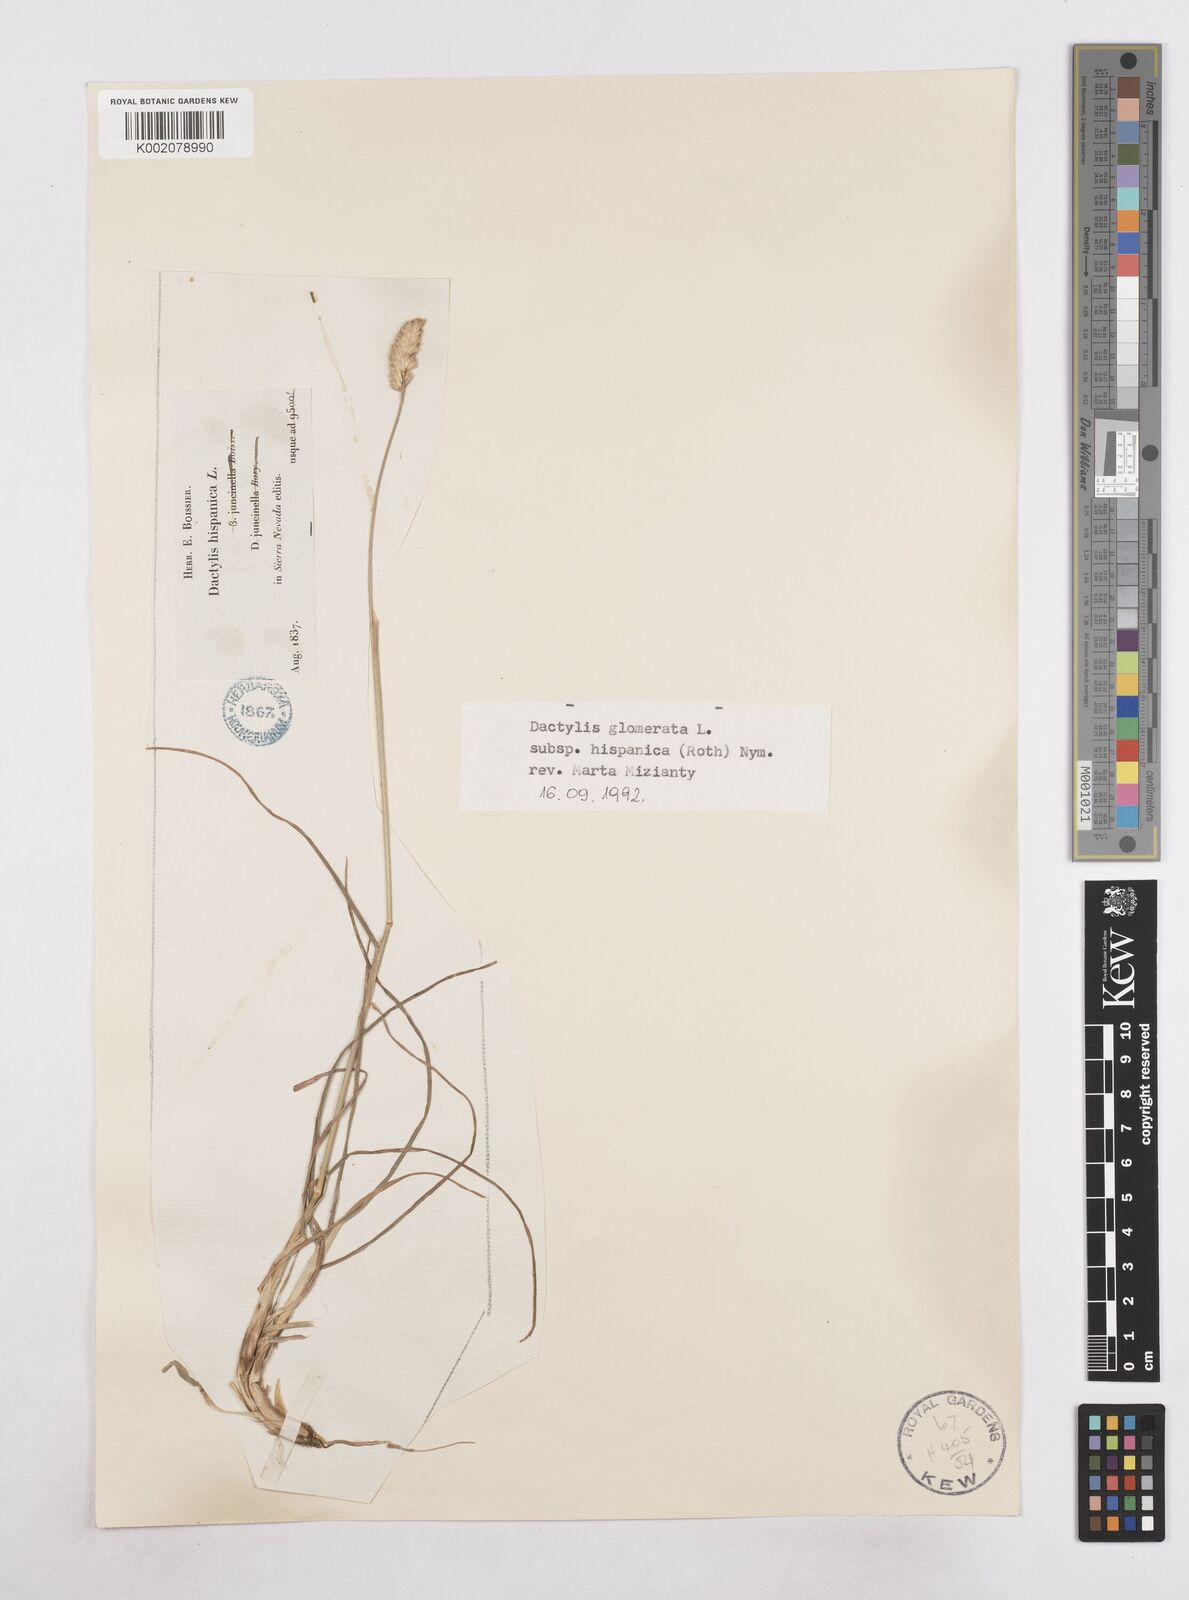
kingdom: Plantae
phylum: Tracheophyta
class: Liliopsida
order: Poales
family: Poaceae
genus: Dactylis
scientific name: Dactylis glomerata
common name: Orchardgrass
